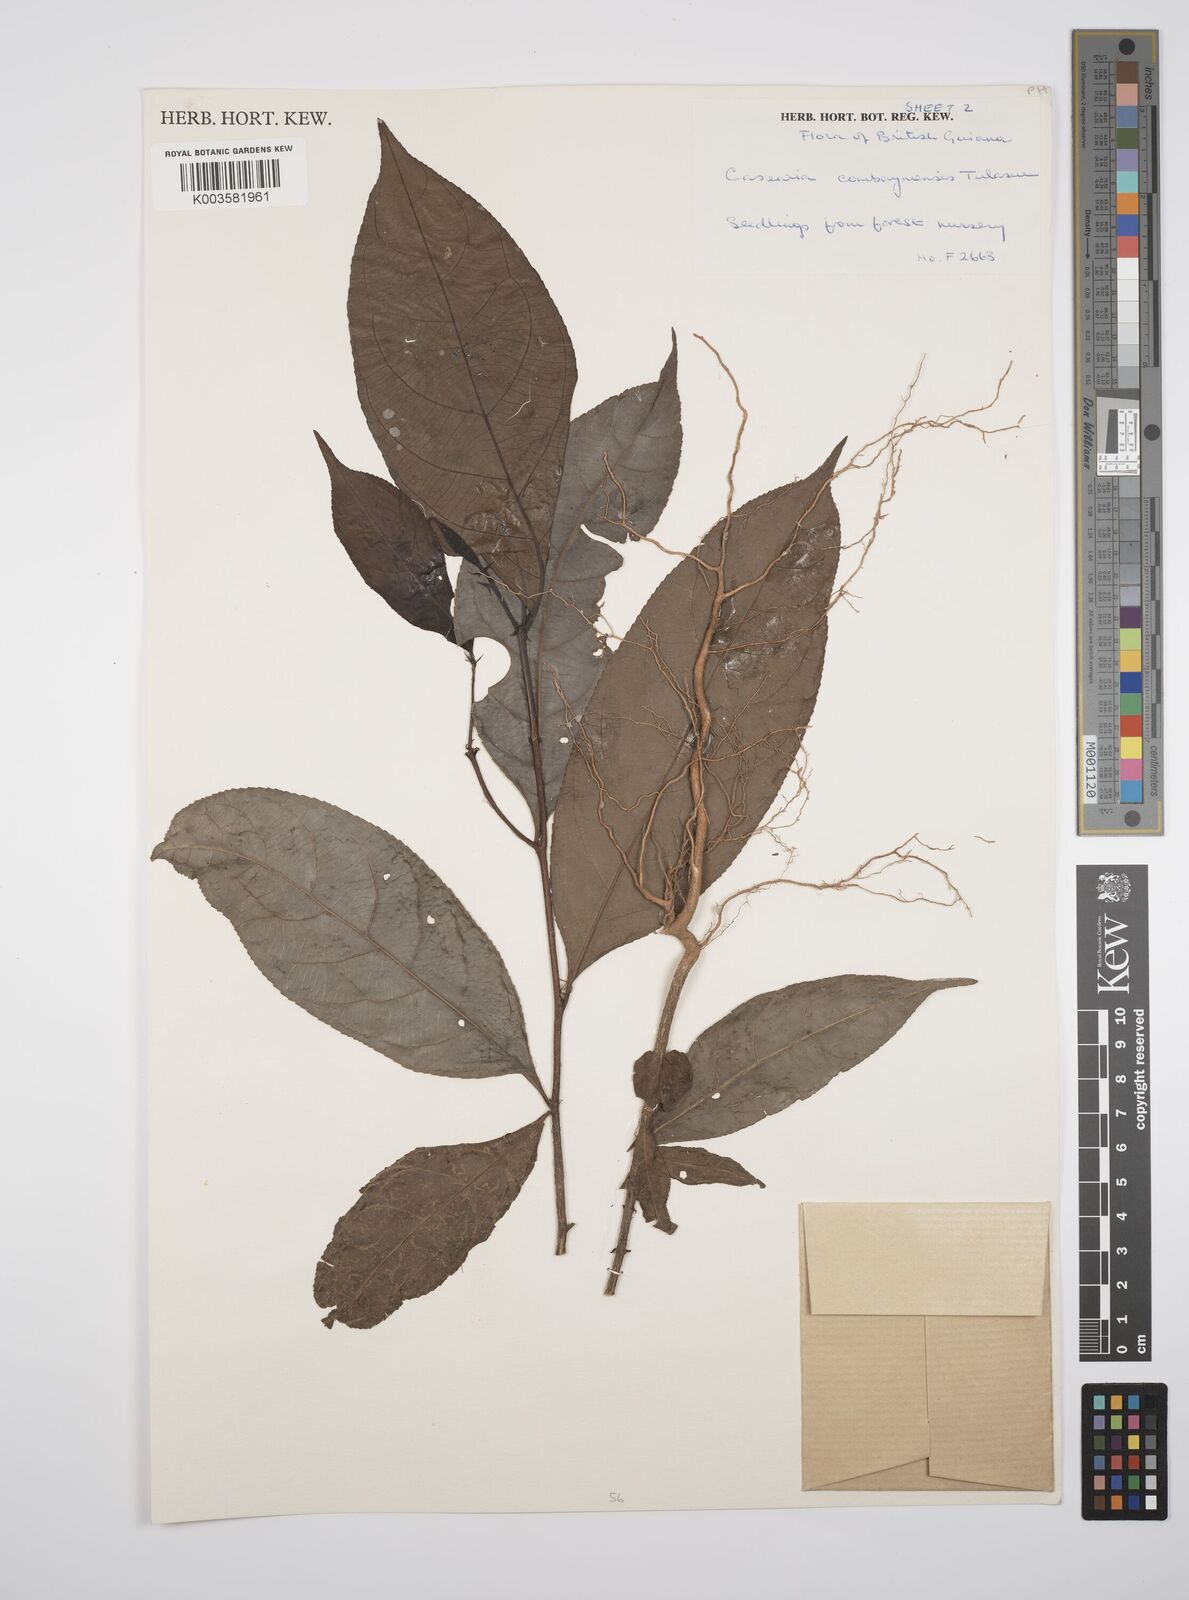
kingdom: Plantae
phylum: Tracheophyta
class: Magnoliopsida
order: Malpighiales
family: Salicaceae
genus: Casearia
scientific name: Casearia combaymensis
